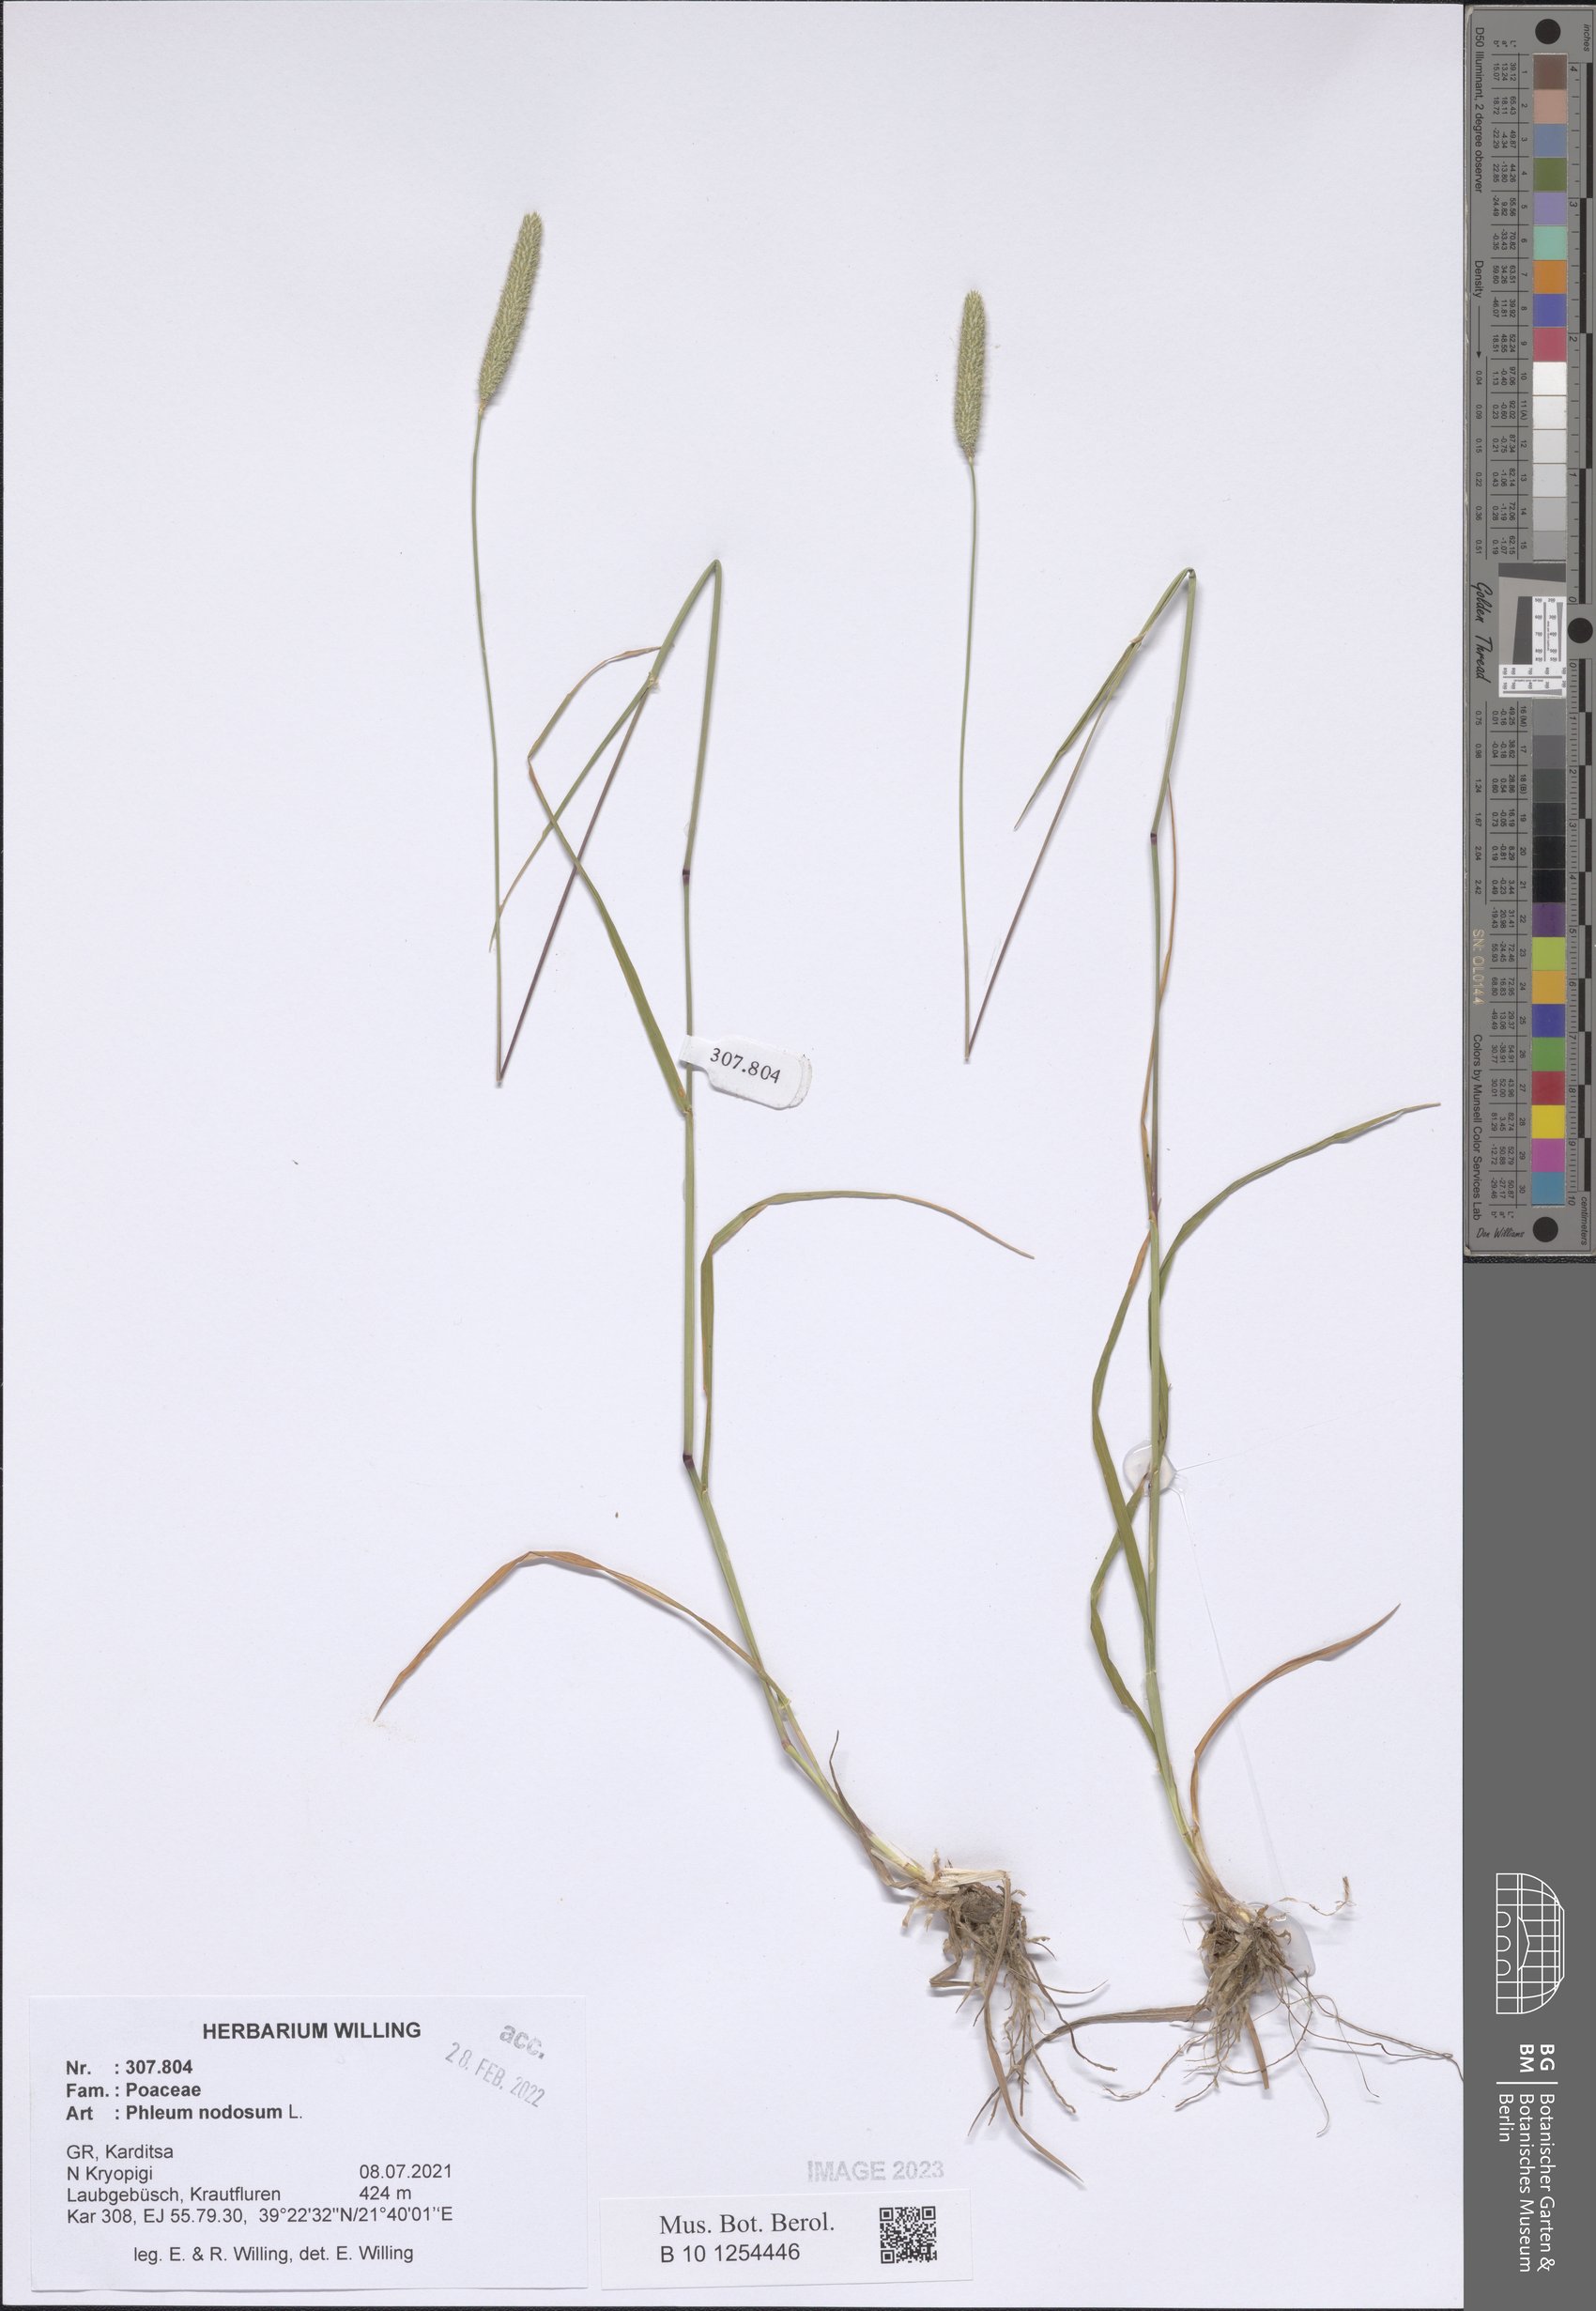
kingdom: Plantae
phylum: Tracheophyta
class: Liliopsida
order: Poales
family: Poaceae
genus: Phleum
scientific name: Phleum pratense
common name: Timothy grass
